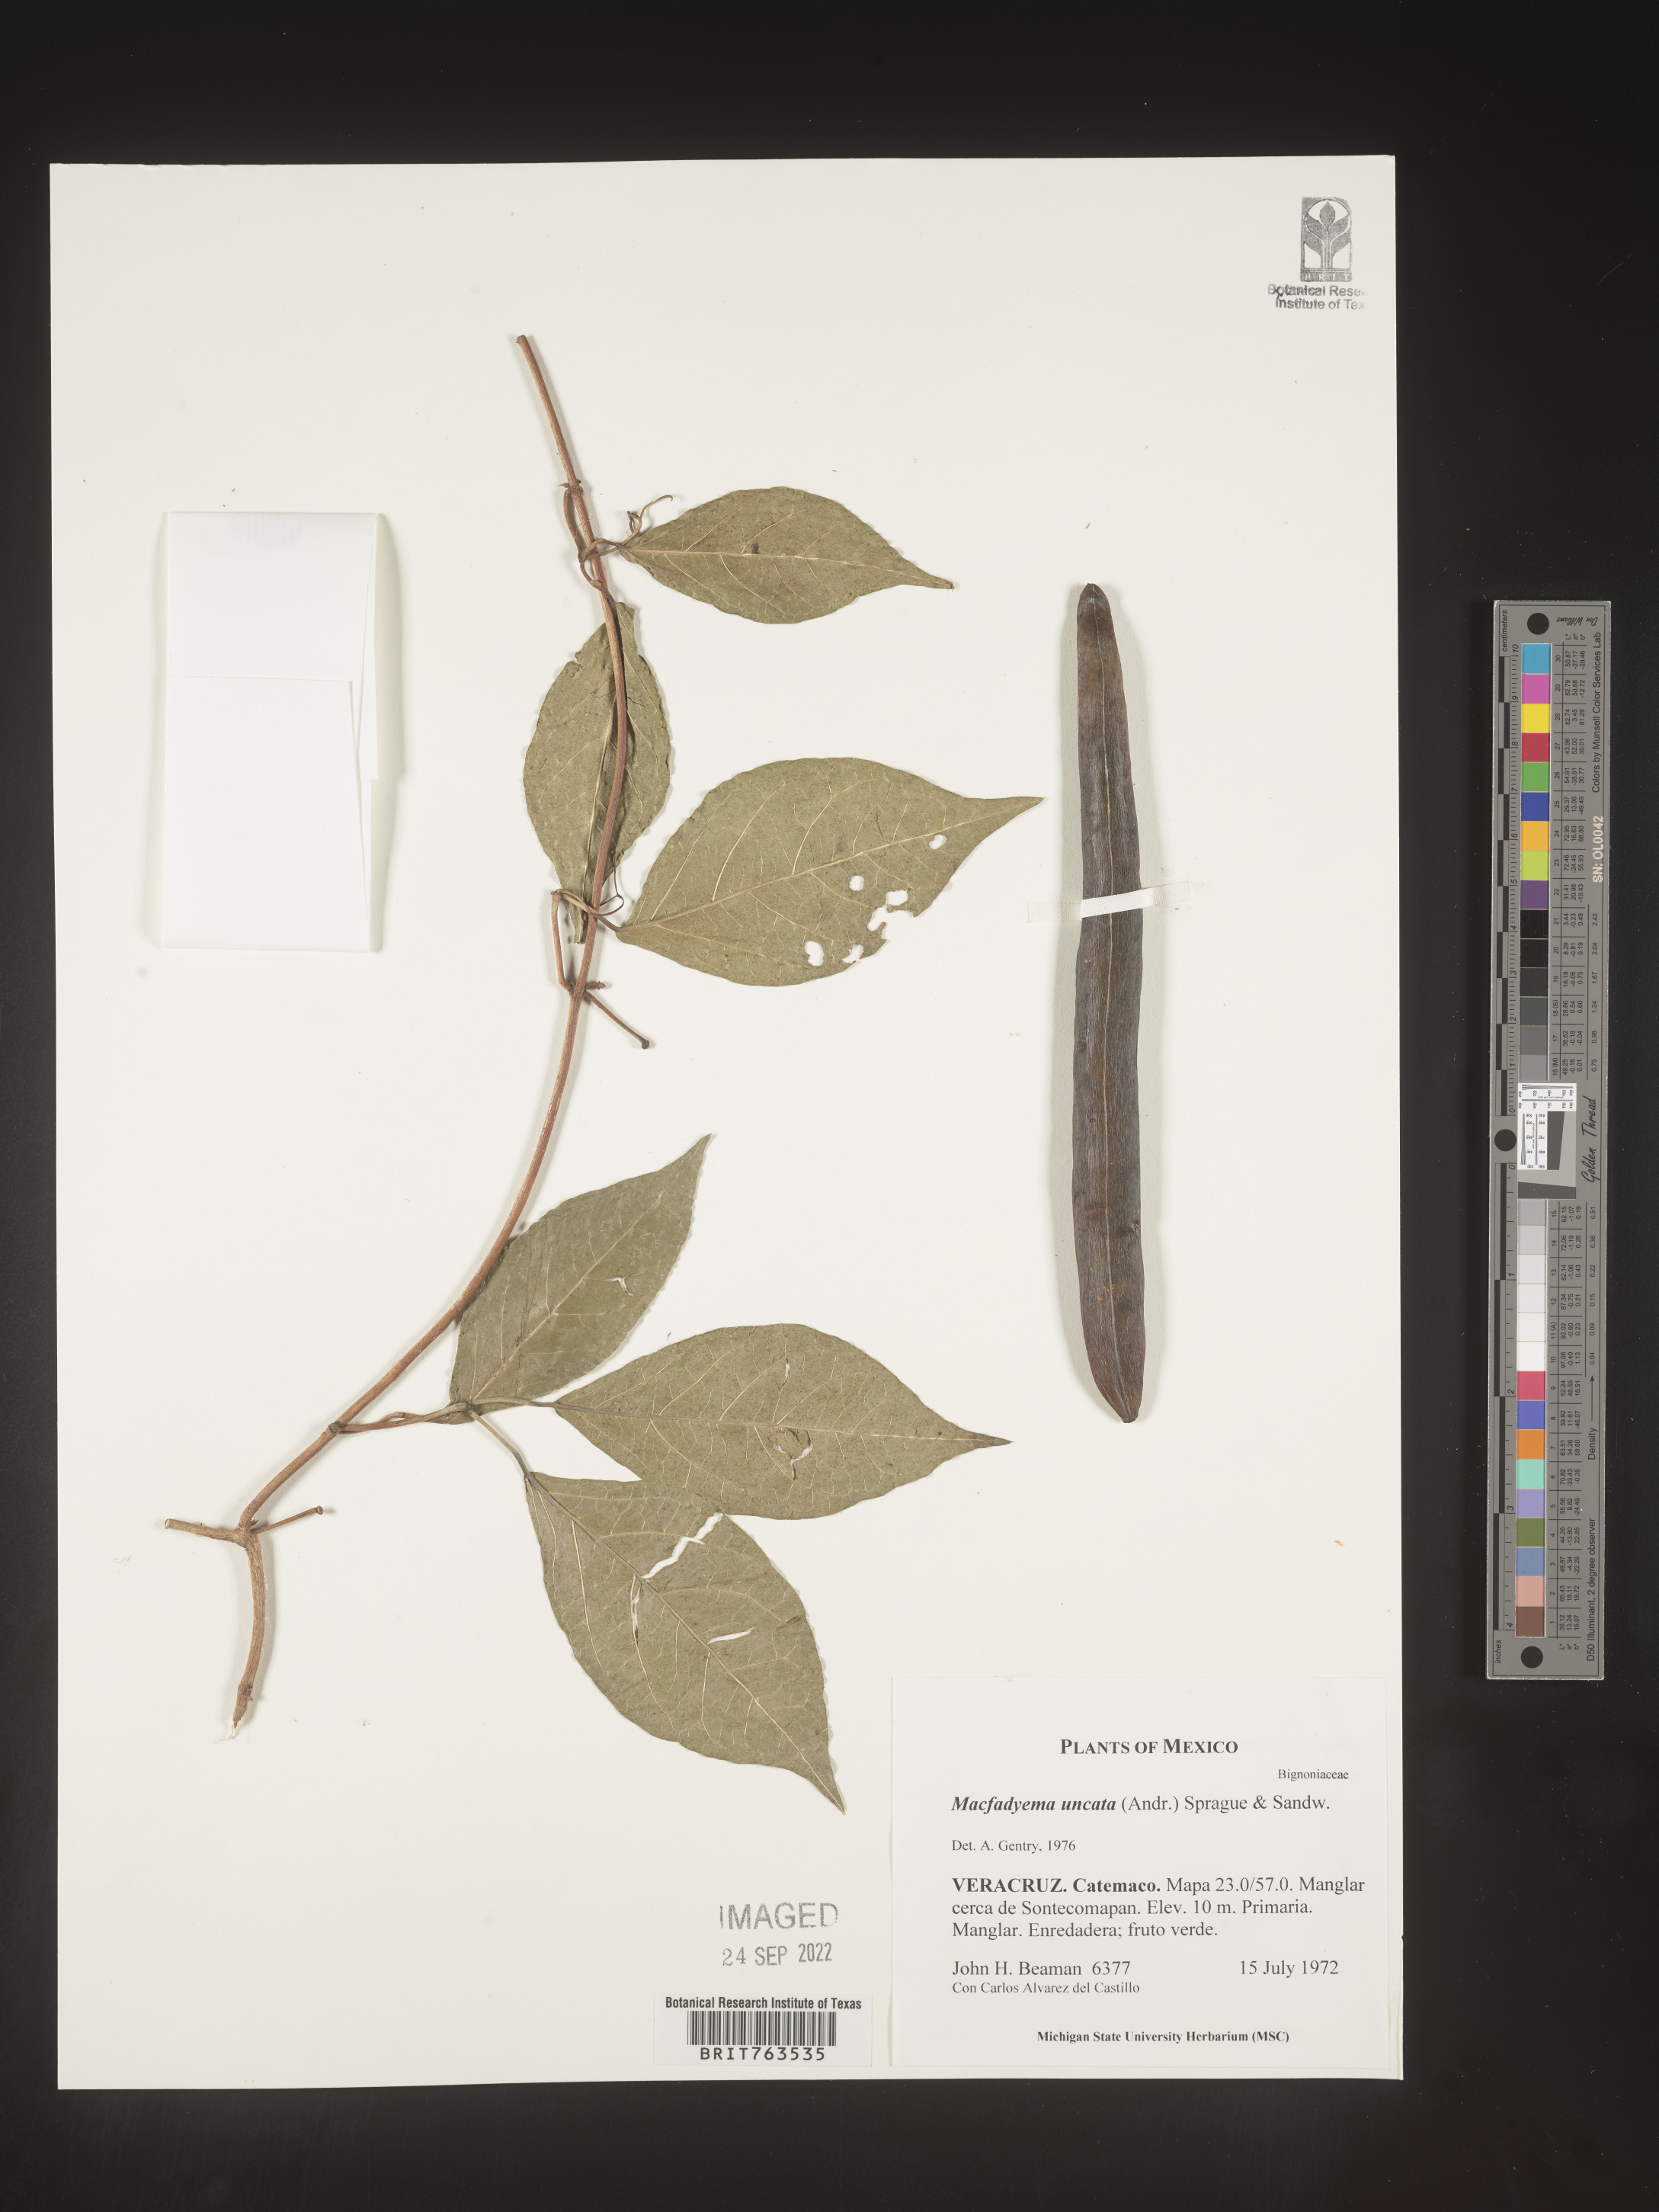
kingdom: Animalia
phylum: Chordata
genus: Macfadyena
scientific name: Macfadyena
